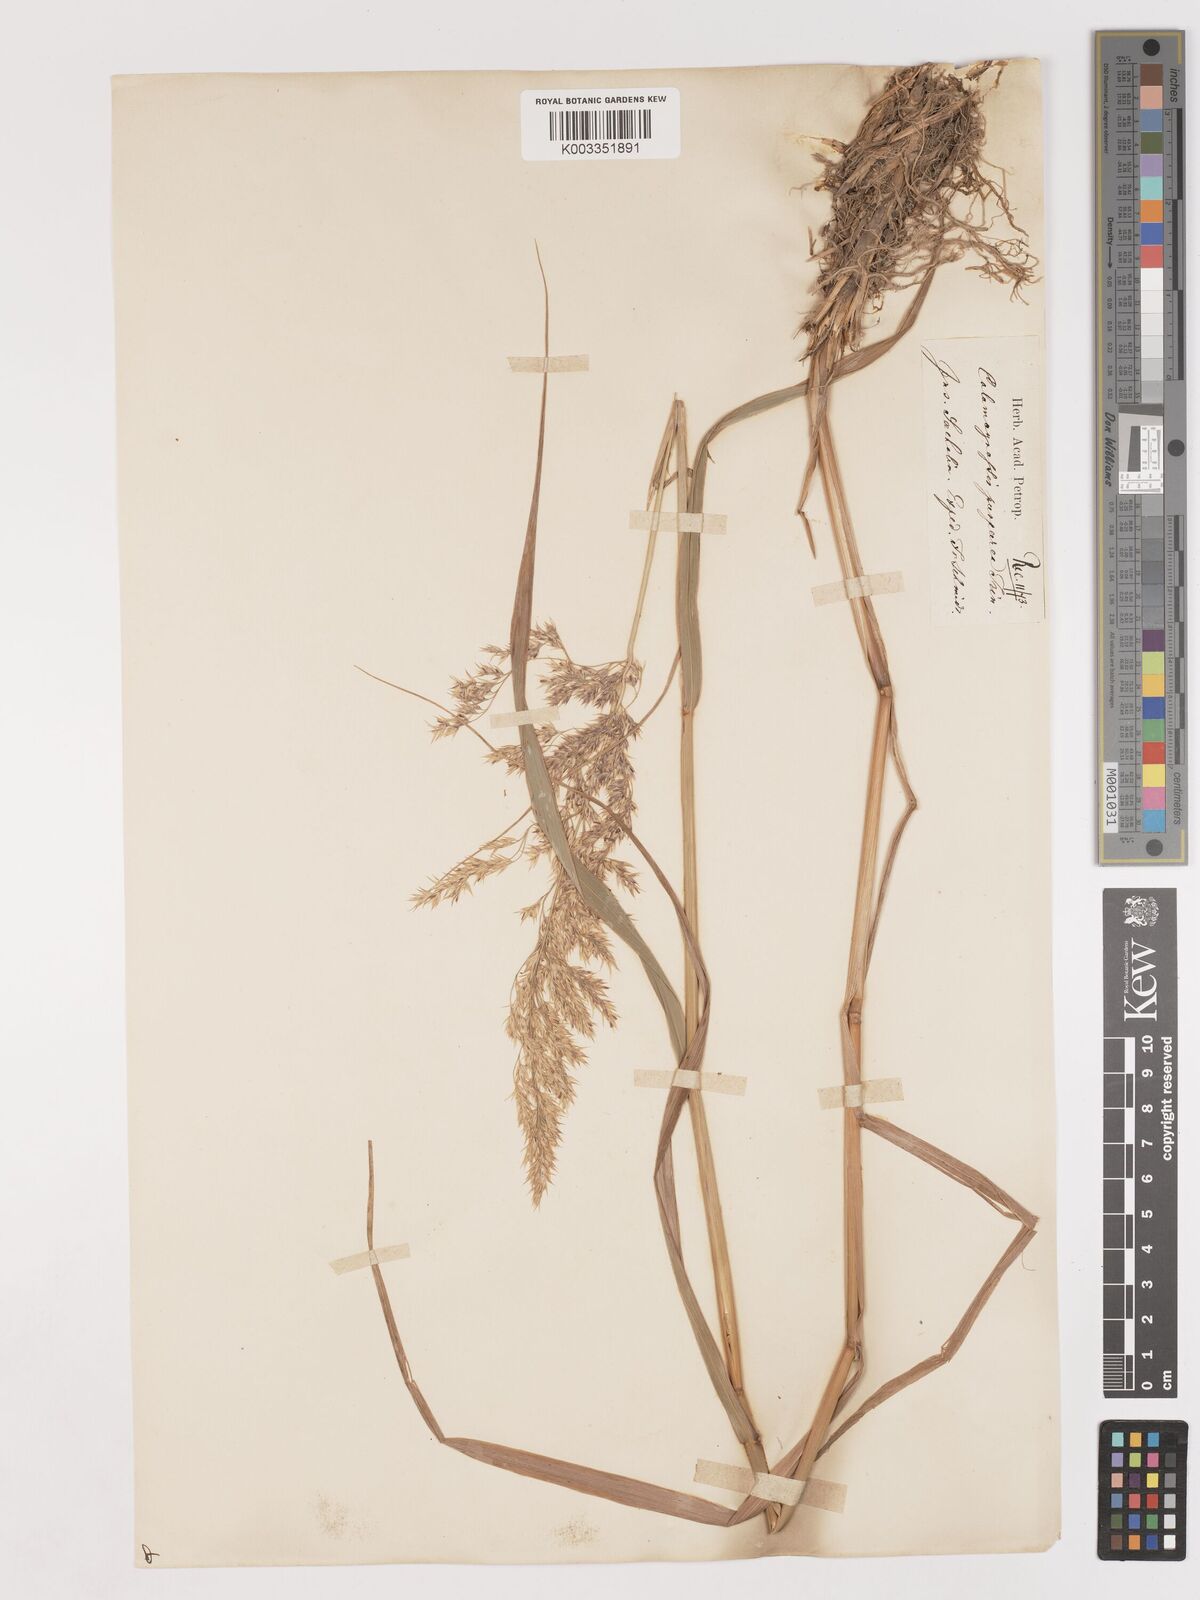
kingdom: Plantae
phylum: Tracheophyta
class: Liliopsida
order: Poales
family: Poaceae
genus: Calamagrostis
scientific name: Calamagrostis purpurea
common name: Scandinavian small-reed
